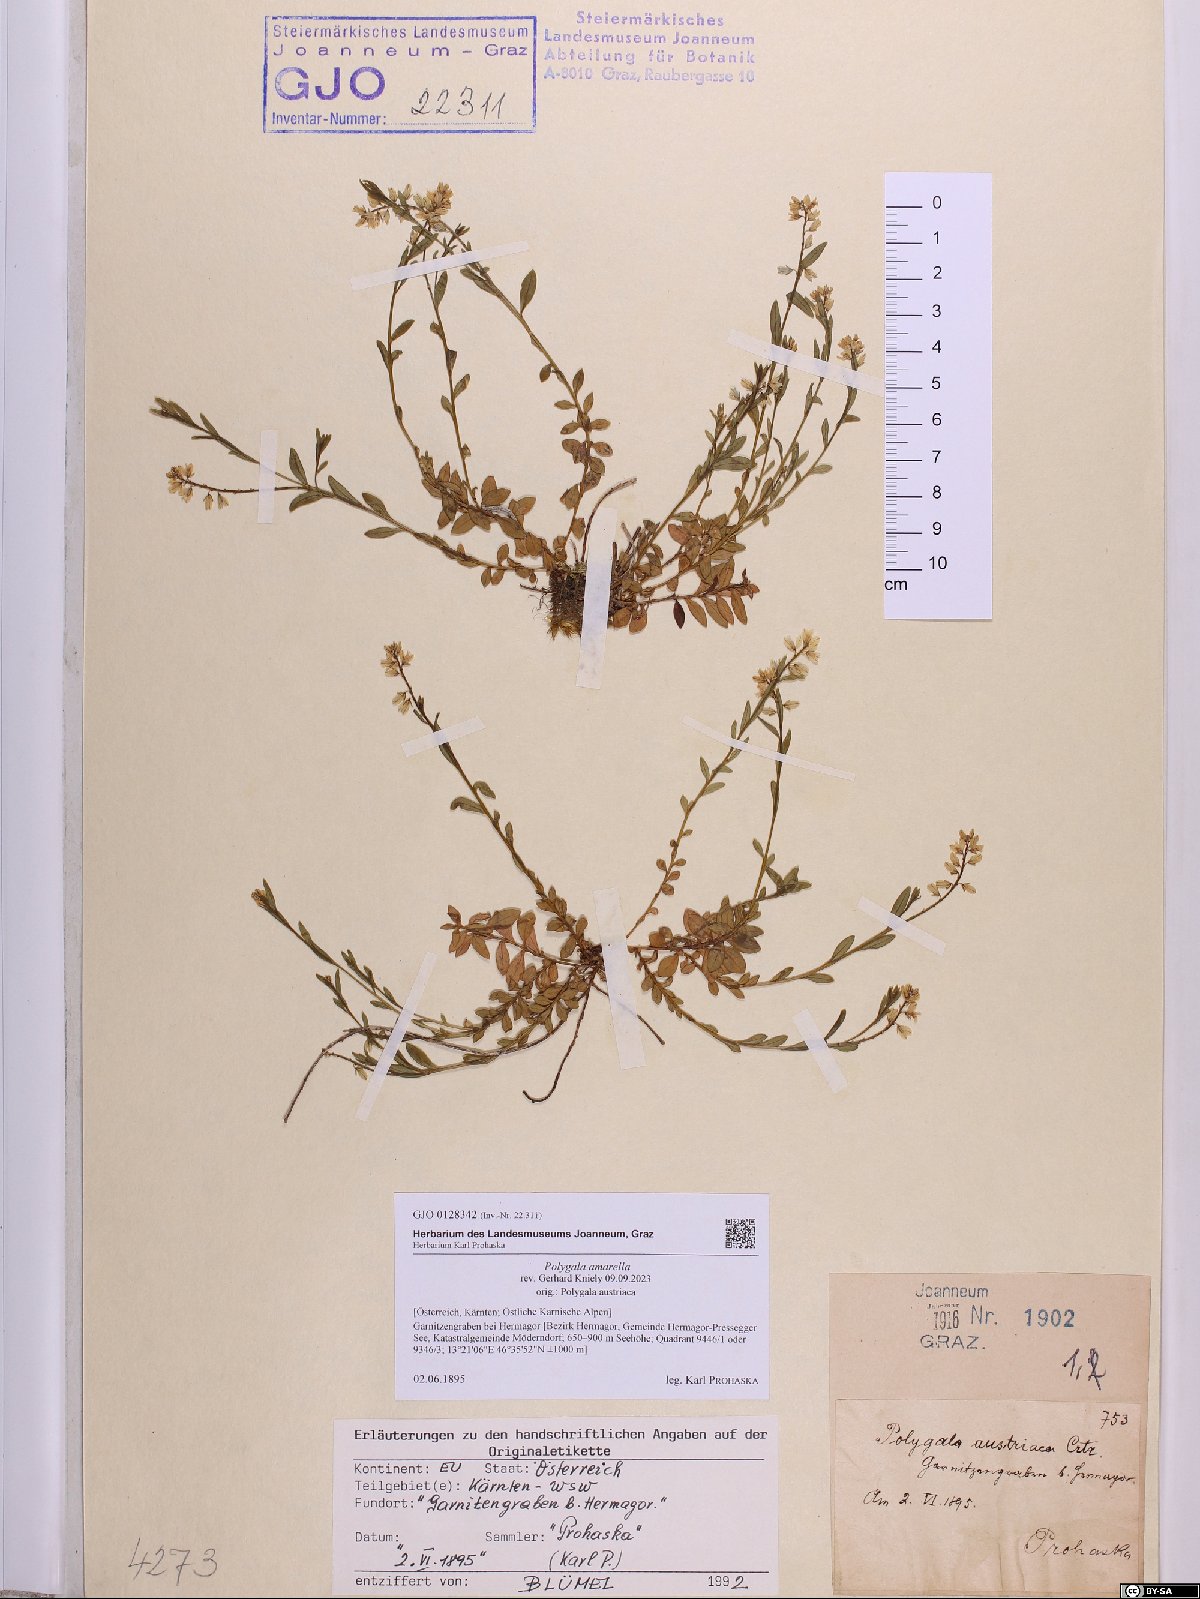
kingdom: Plantae
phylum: Tracheophyta
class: Magnoliopsida
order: Fabales
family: Polygalaceae
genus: Polygala
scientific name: Polygala amarella
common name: Dwarf milkwort
